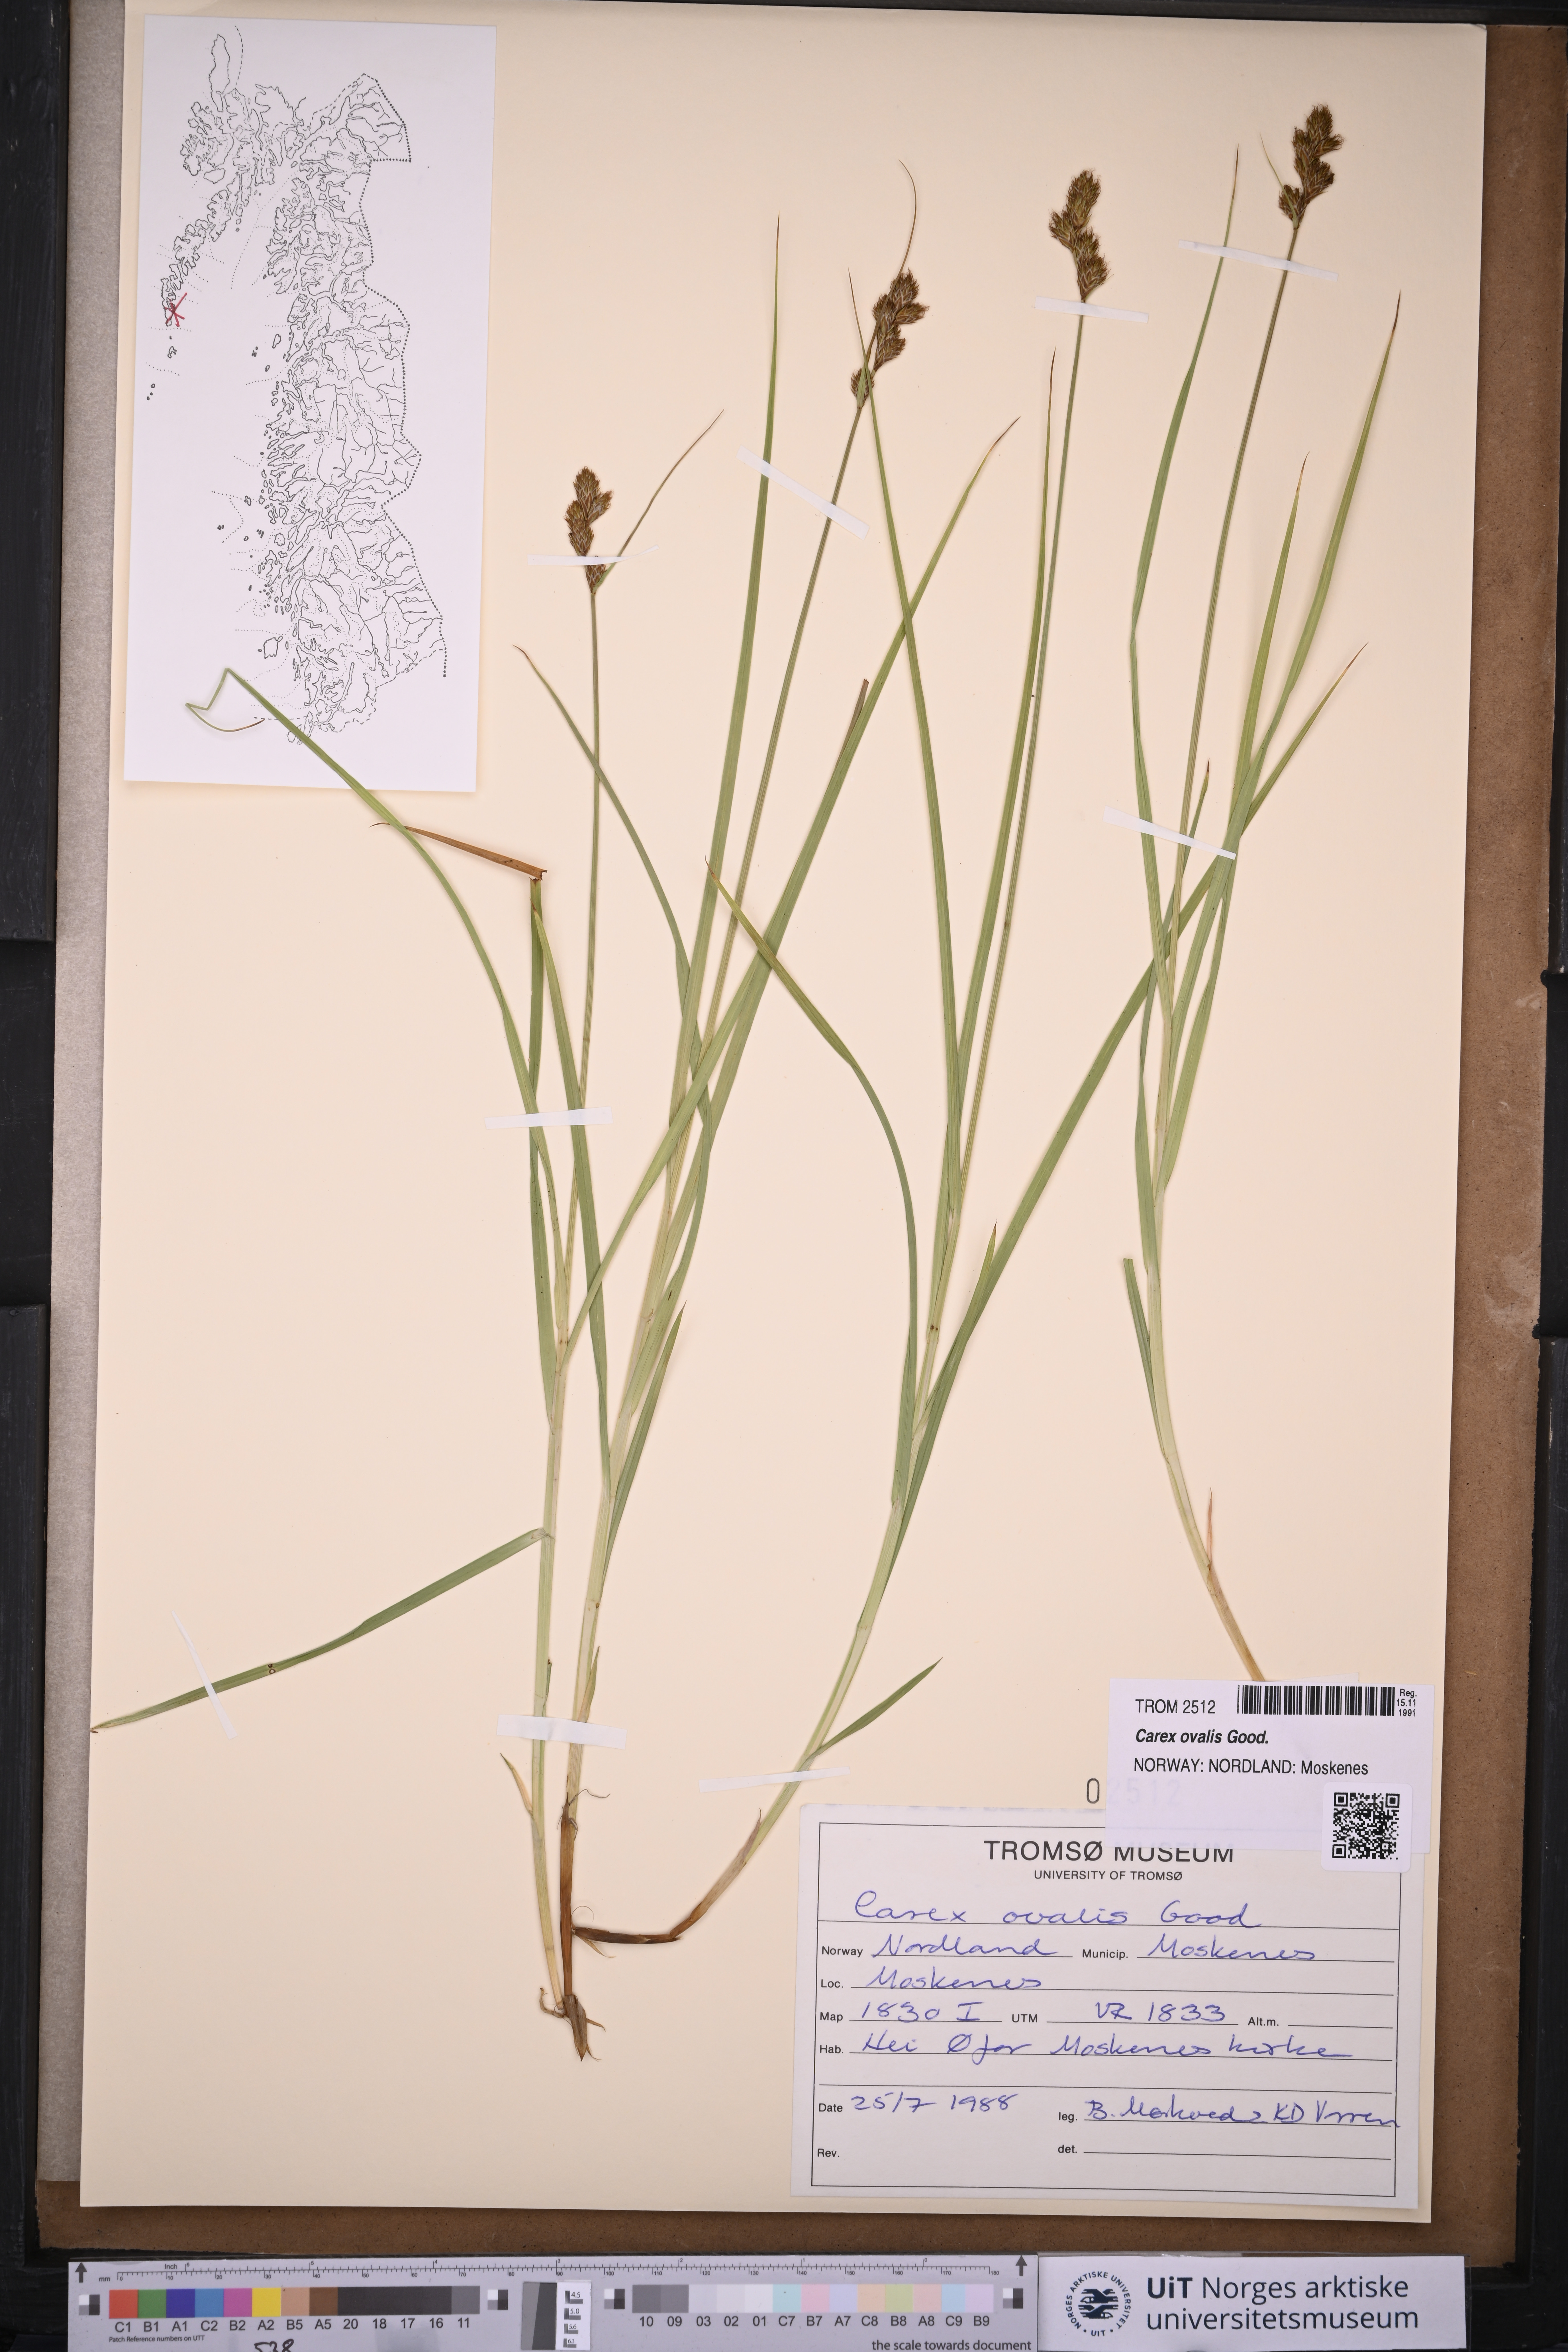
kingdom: Plantae
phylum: Tracheophyta
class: Liliopsida
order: Poales
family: Cyperaceae
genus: Carex
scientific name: Carex leporina
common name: Oval sedge
